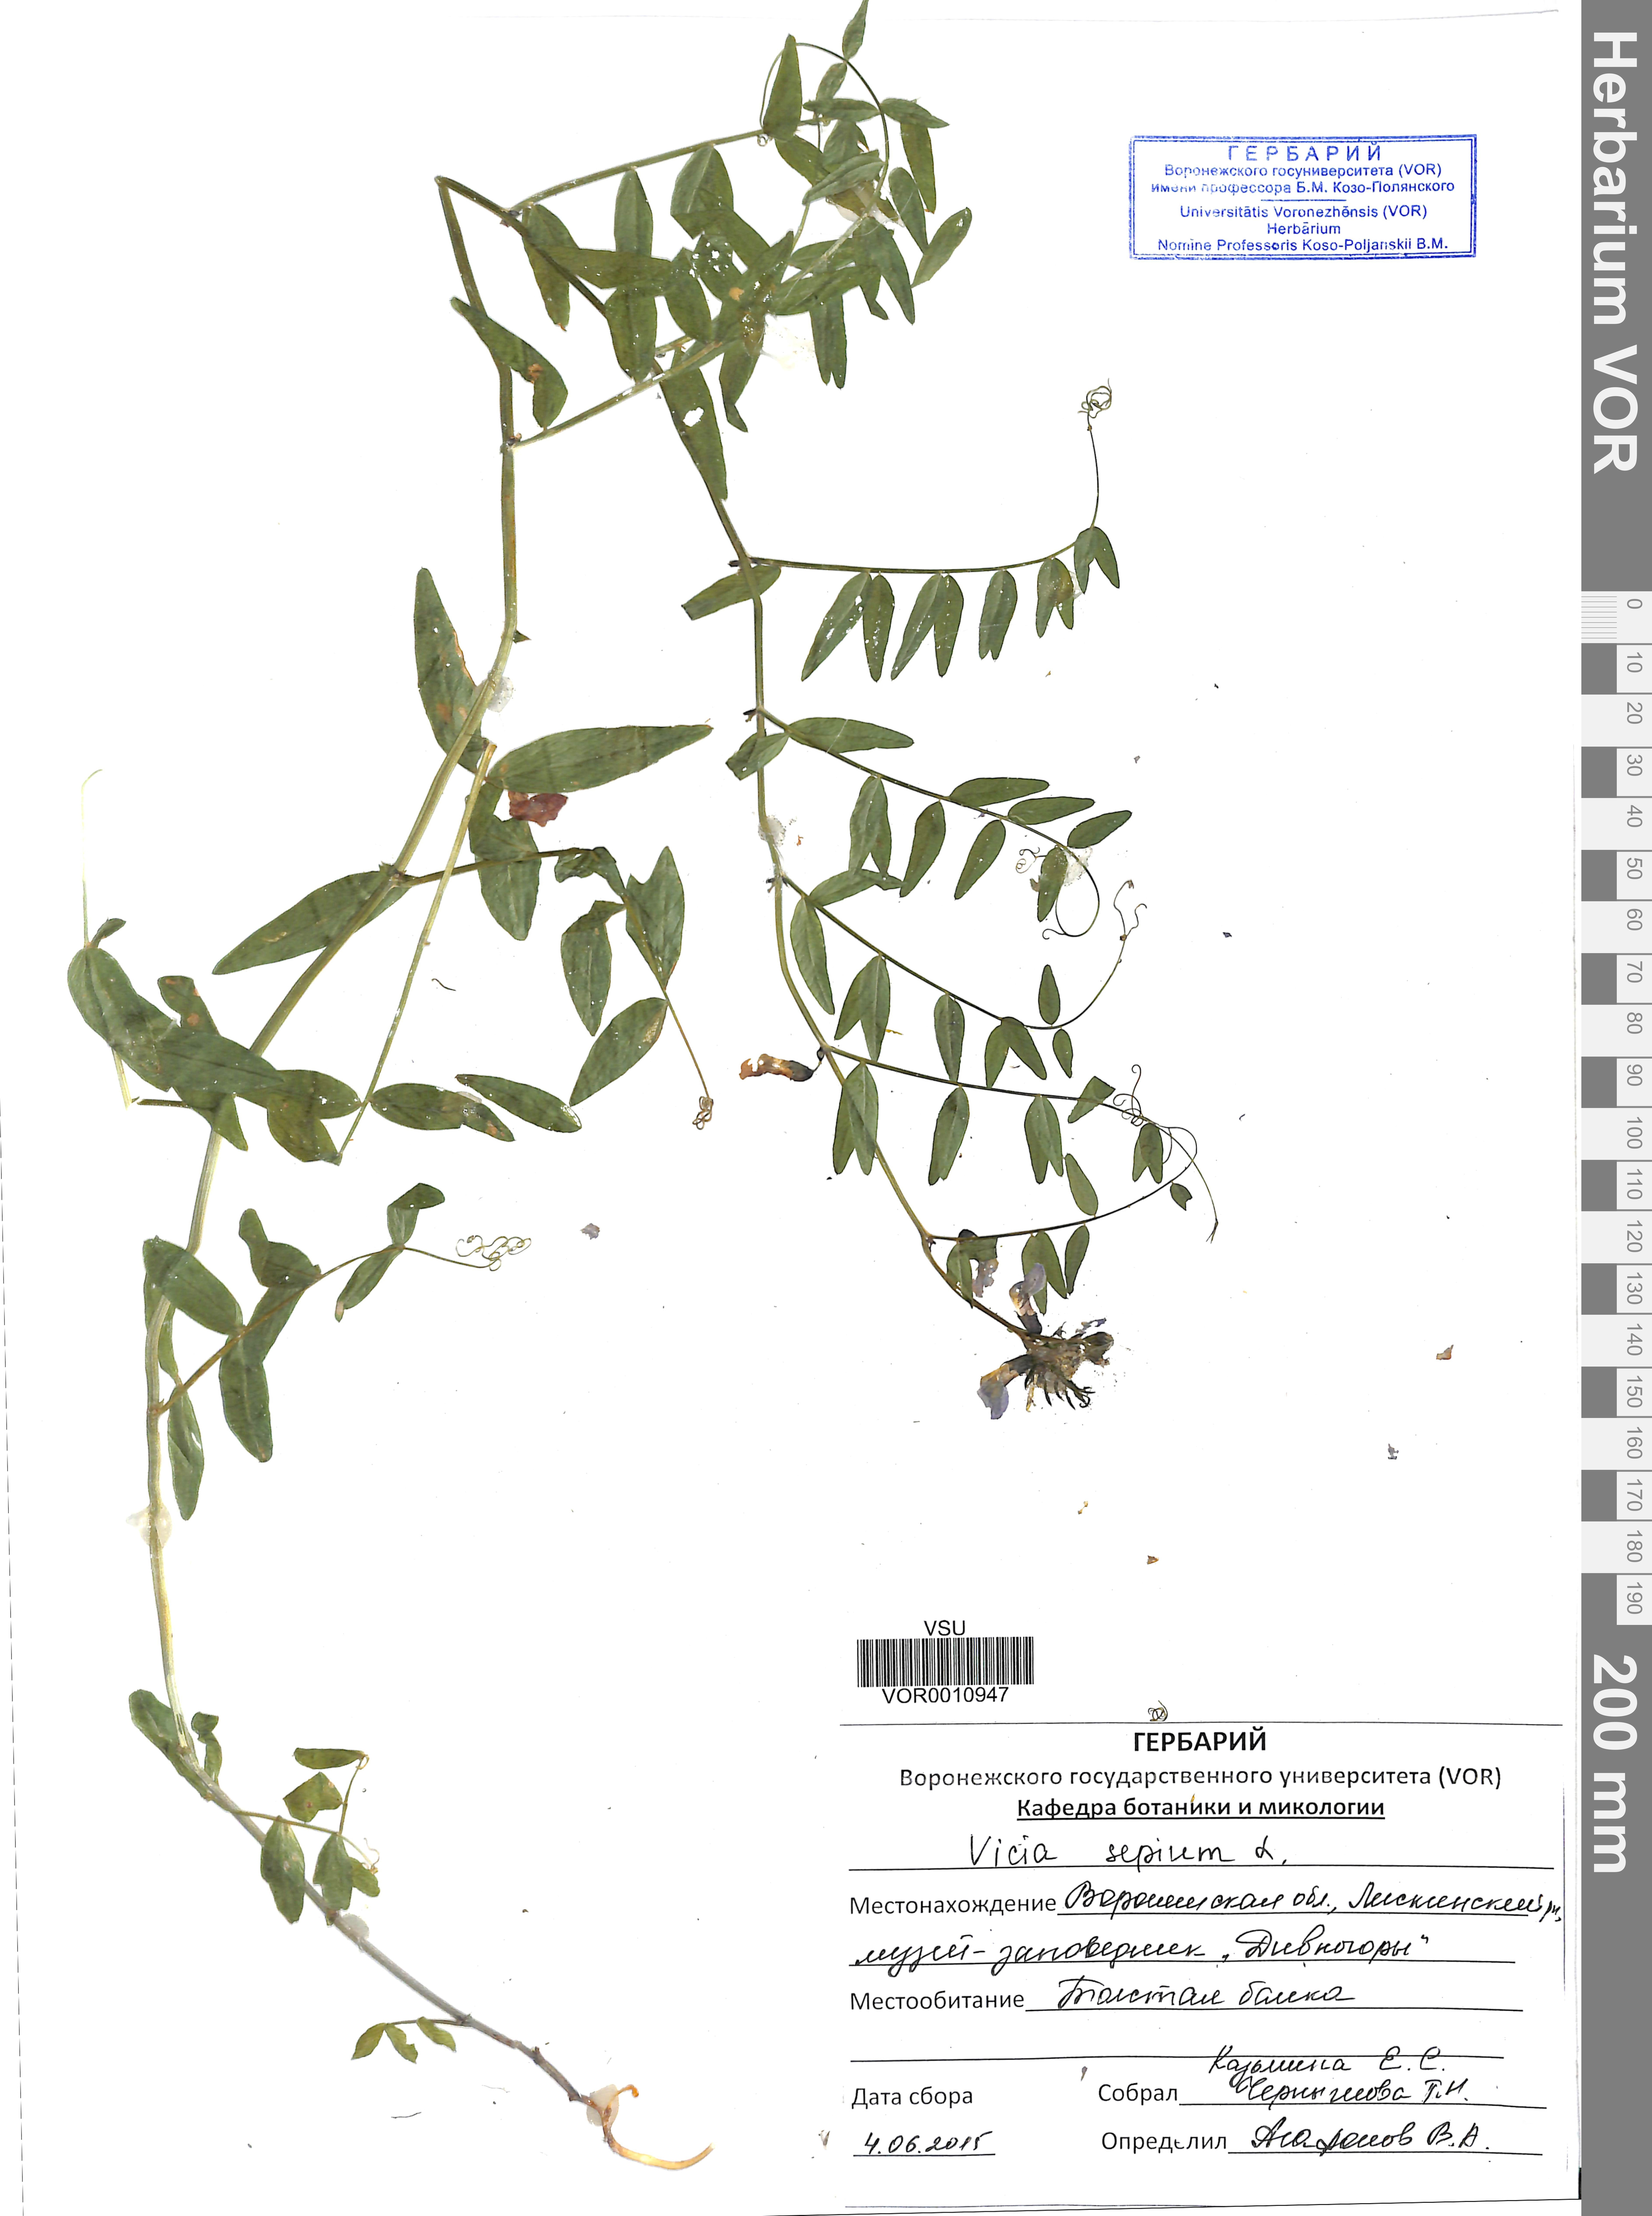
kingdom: Plantae
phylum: Tracheophyta
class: Magnoliopsida
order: Fabales
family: Fabaceae
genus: Vicia
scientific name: Vicia sepium
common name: Bush vetch
